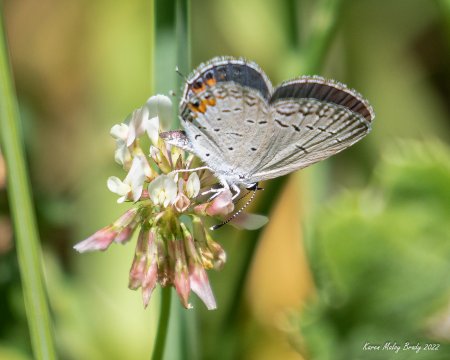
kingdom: Animalia
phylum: Arthropoda
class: Insecta
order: Lepidoptera
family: Lycaenidae
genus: Elkalyce
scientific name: Elkalyce comyntas
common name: Eastern Tailed-Blue
